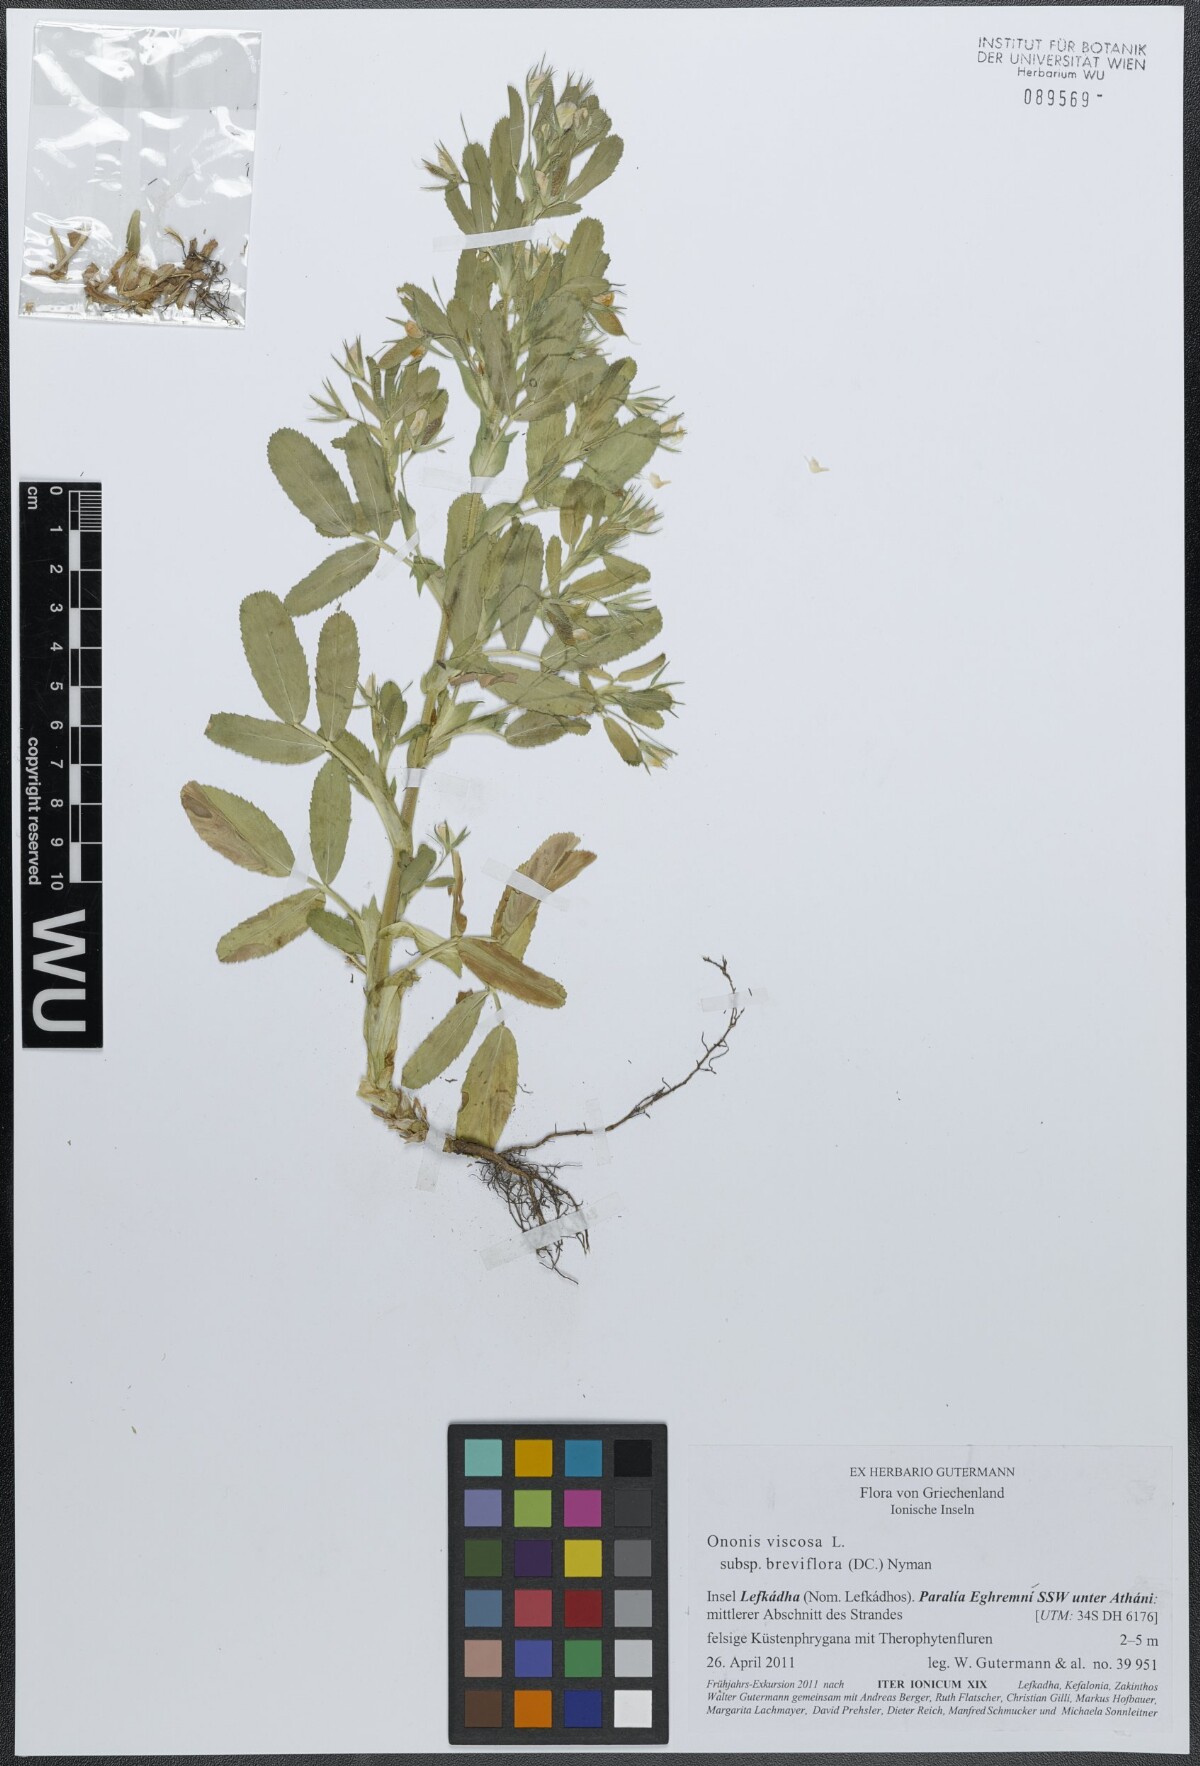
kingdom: Plantae
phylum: Tracheophyta
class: Magnoliopsida
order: Fabales
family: Fabaceae
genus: Ononis
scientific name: Ononis viscosa
